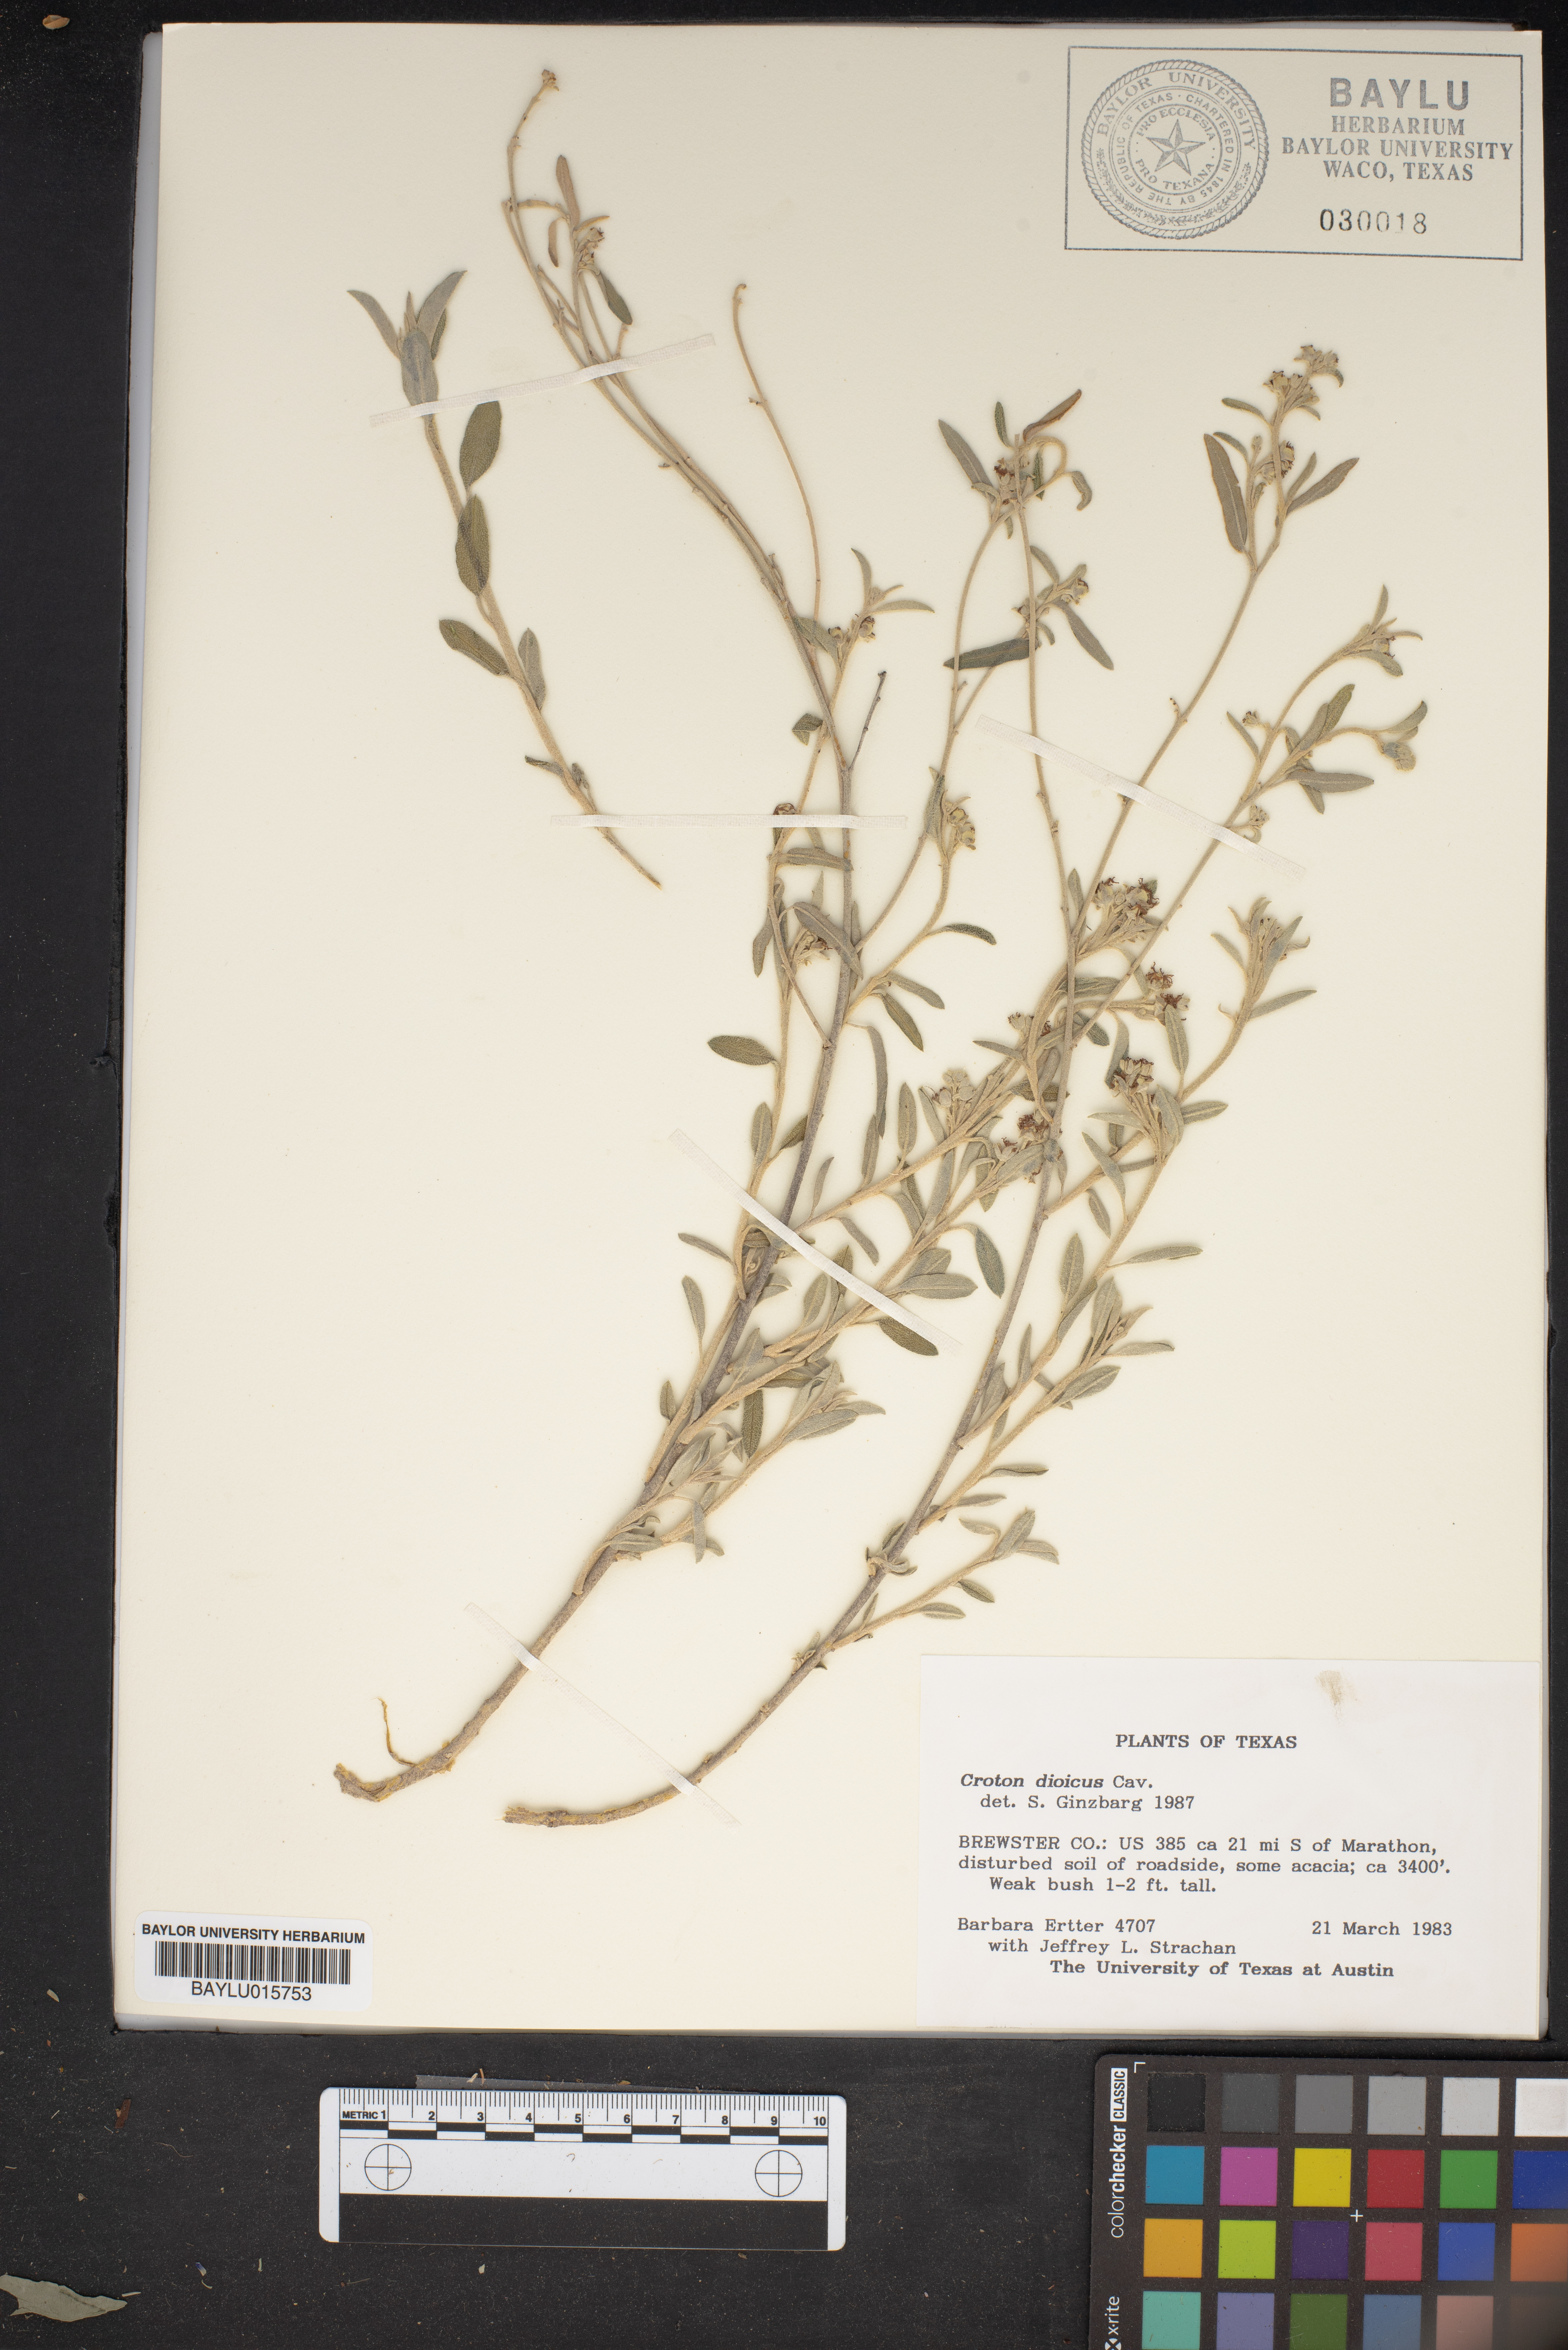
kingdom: Plantae
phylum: Tracheophyta
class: Magnoliopsida
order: Malpighiales
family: Euphorbiaceae
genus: Croton
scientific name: Croton dioicus
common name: Grassland croton
